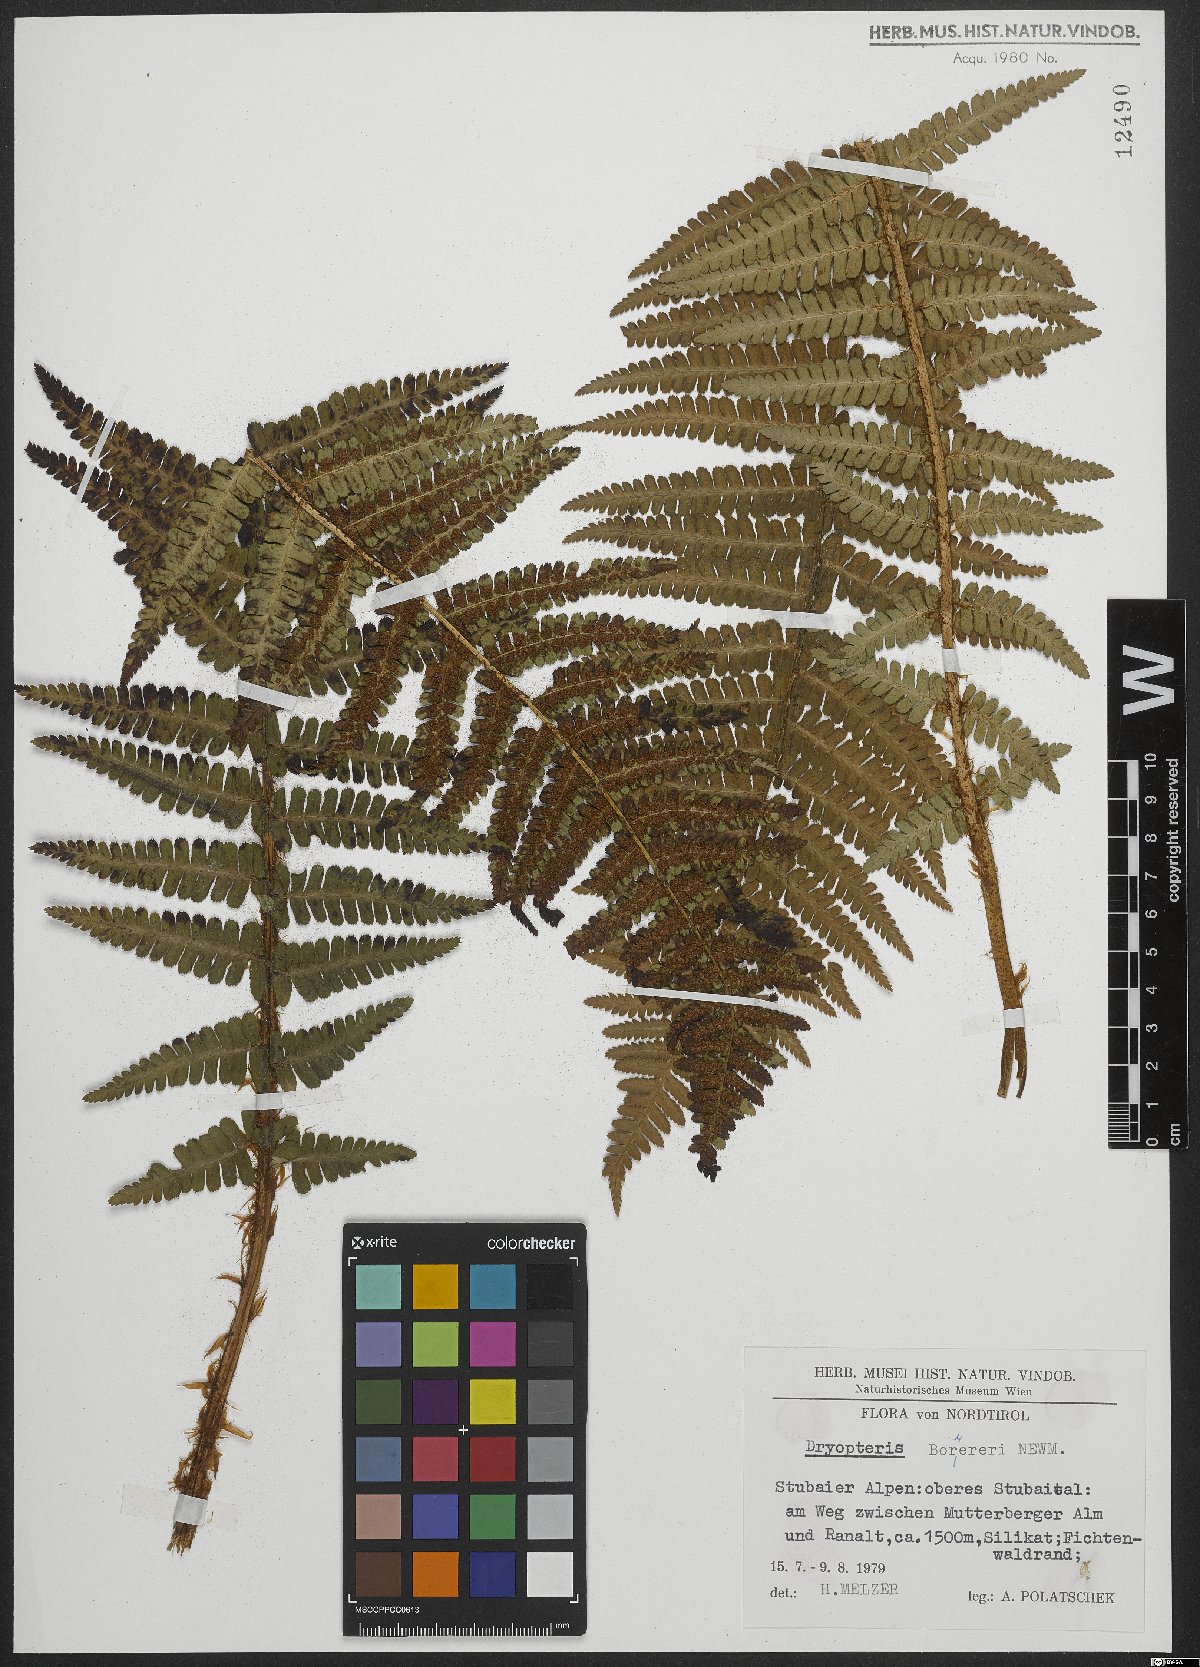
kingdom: Plantae
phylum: Tracheophyta
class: Polypodiopsida
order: Polypodiales
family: Dryopteridaceae
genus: Dryopteris
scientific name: Dryopteris cambrensis
